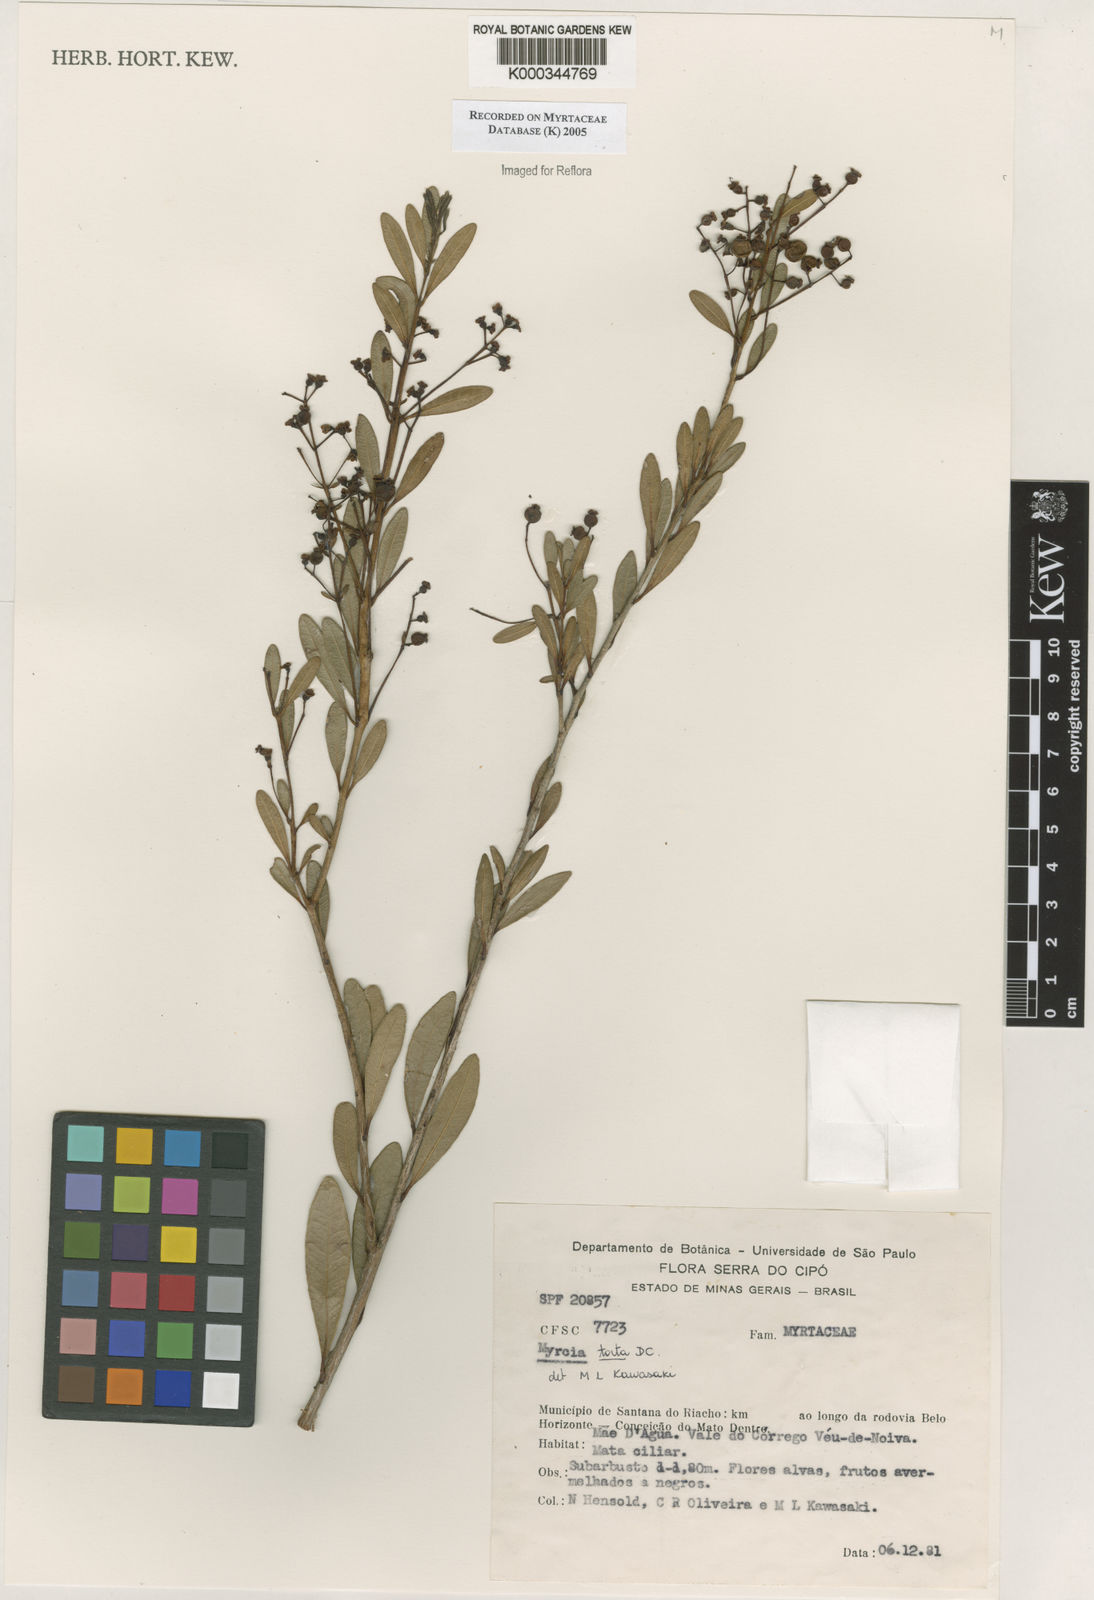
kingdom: Plantae
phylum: Tracheophyta
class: Magnoliopsida
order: Myrtales
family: Myrtaceae
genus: Myrcia
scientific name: Myrcia guianensis
